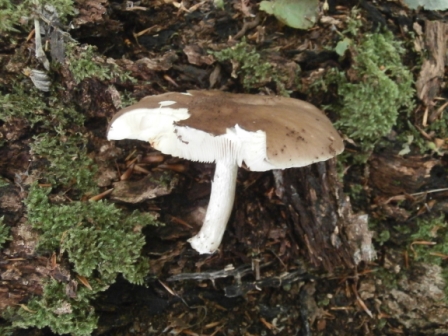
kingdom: Fungi
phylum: Basidiomycota
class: Agaricomycetes
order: Agaricales
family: Pluteaceae
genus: Pluteus
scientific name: Pluteus cervinus
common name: sodfarvet skærmhat
